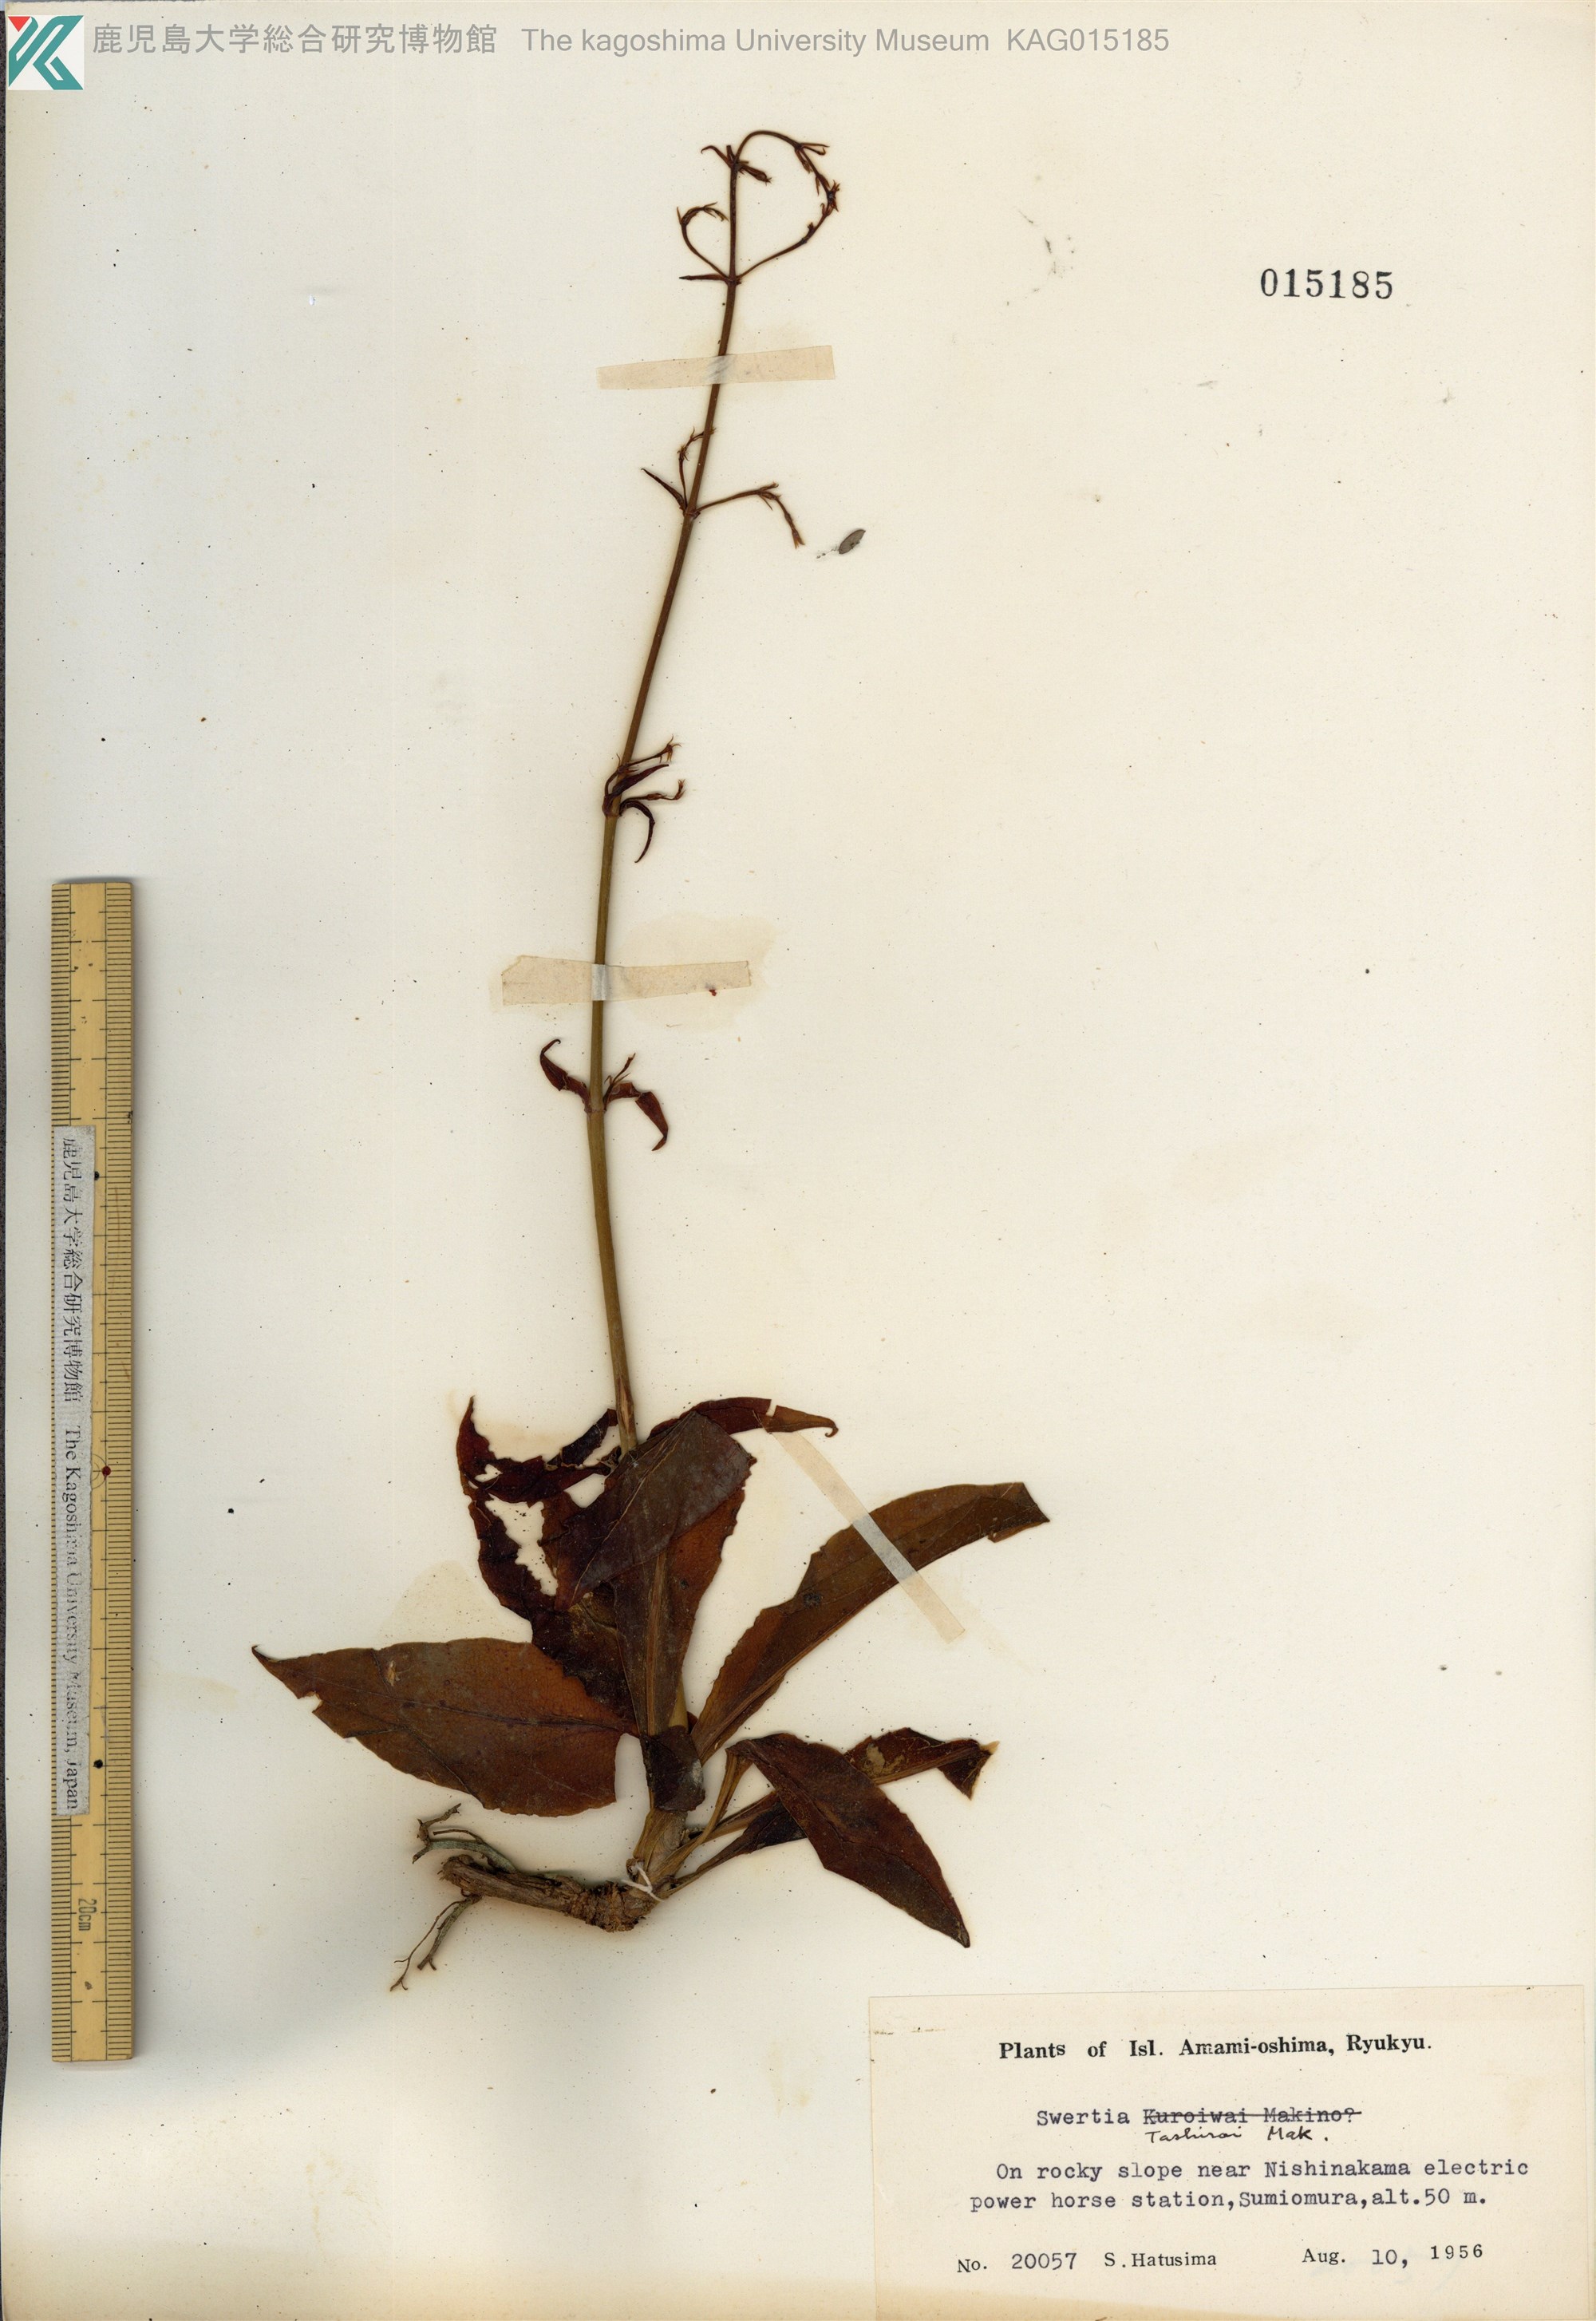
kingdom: Plantae
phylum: Tracheophyta
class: Magnoliopsida
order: Gentianales
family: Gentianaceae
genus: Swertia
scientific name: Swertia tashiroi
